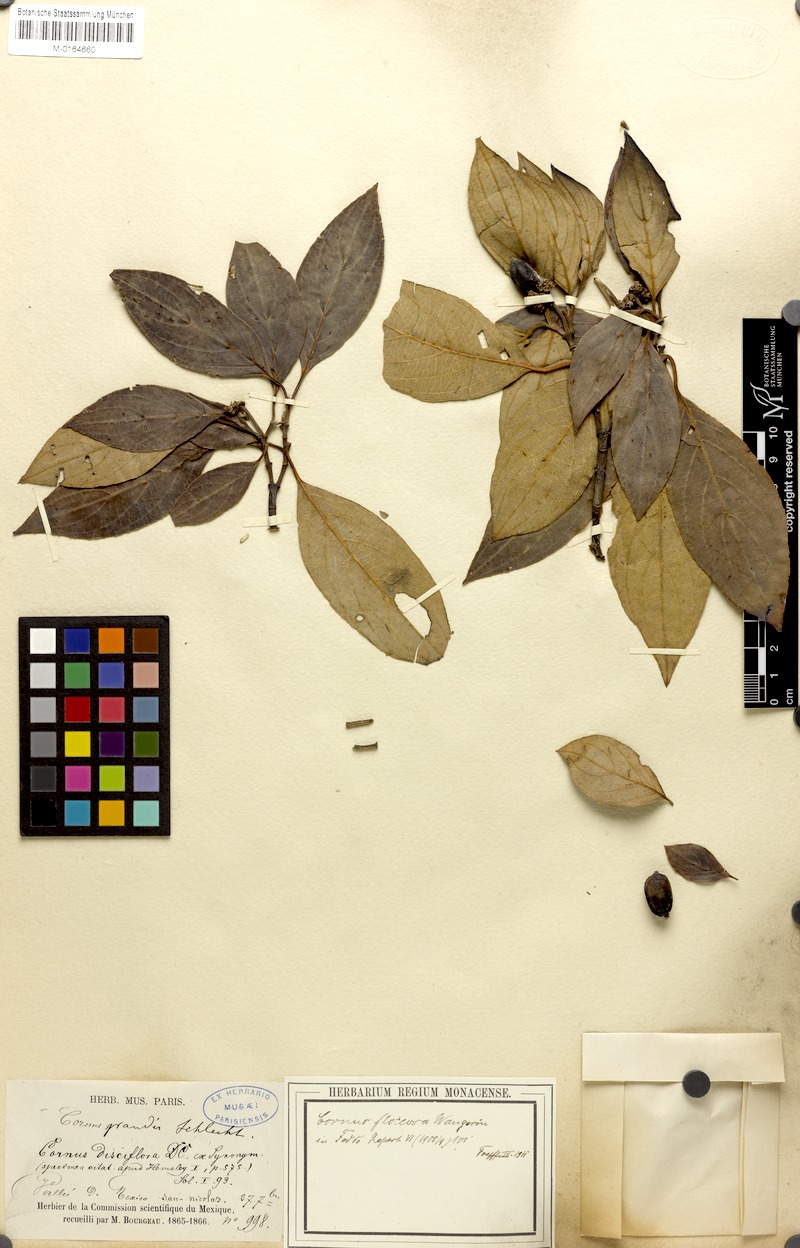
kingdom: Plantae
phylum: Tracheophyta
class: Magnoliopsida
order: Cornales
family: Cornaceae
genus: Cornus
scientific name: Cornus disciflora
